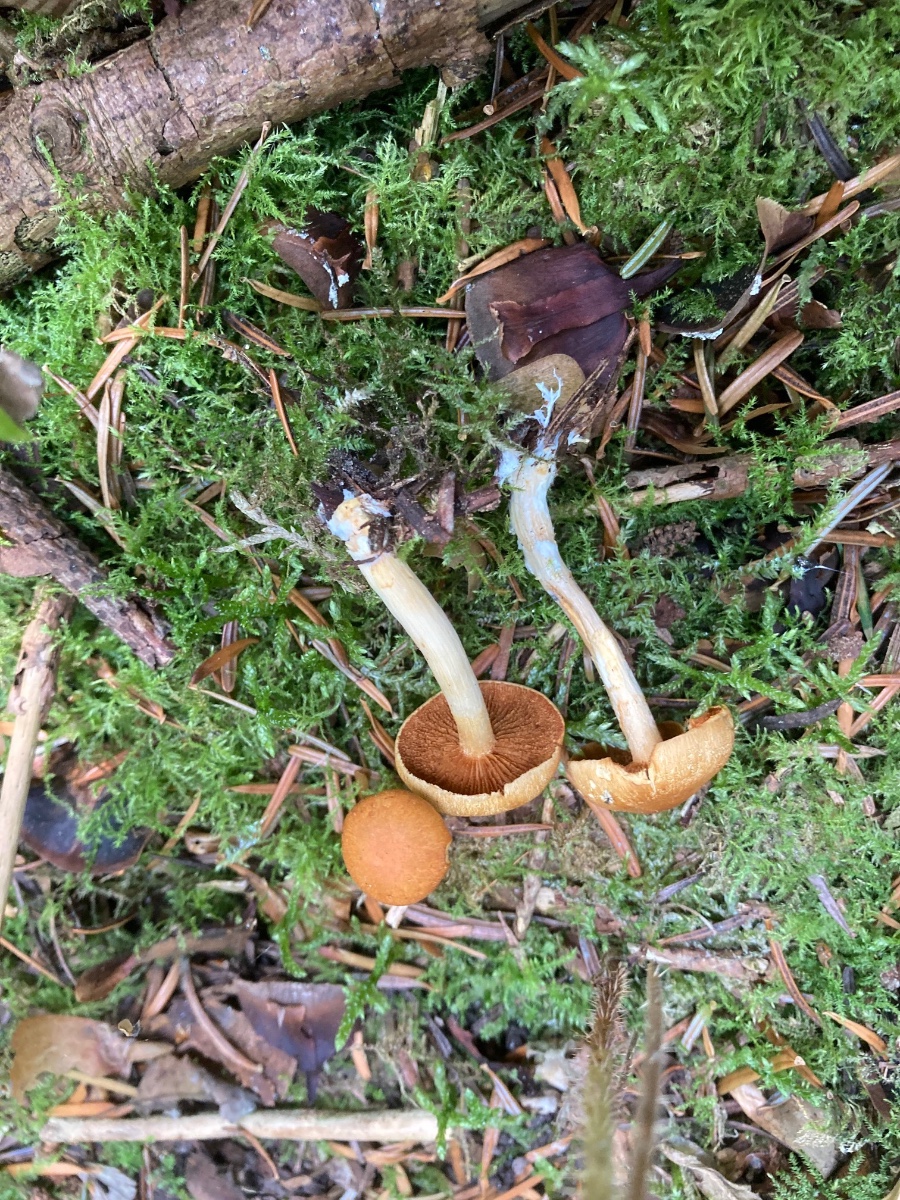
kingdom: Fungi
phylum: Basidiomycota
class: Agaricomycetes
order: Agaricales
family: Hymenogastraceae
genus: Gymnopilus
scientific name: Gymnopilus penetrans
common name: plettet flammehat
